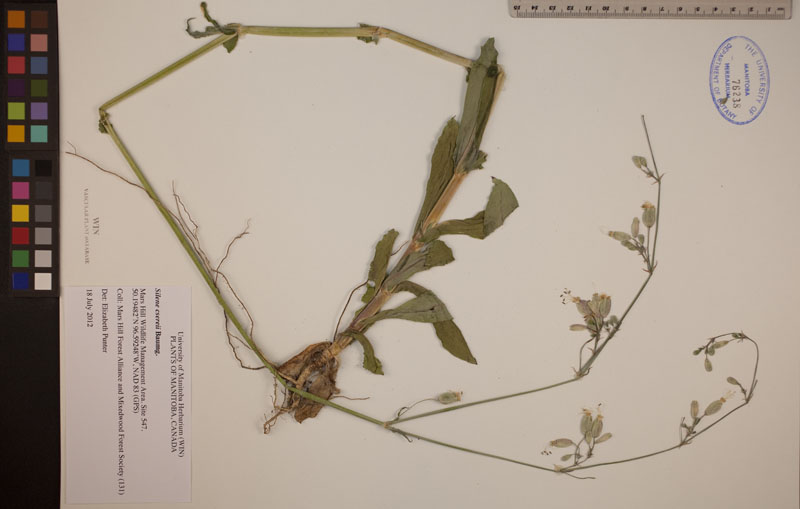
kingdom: Plantae
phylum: Tracheophyta
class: Magnoliopsida
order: Caryophyllales
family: Caryophyllaceae
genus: Silene
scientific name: Silene csereii
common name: Balkan catchfly
